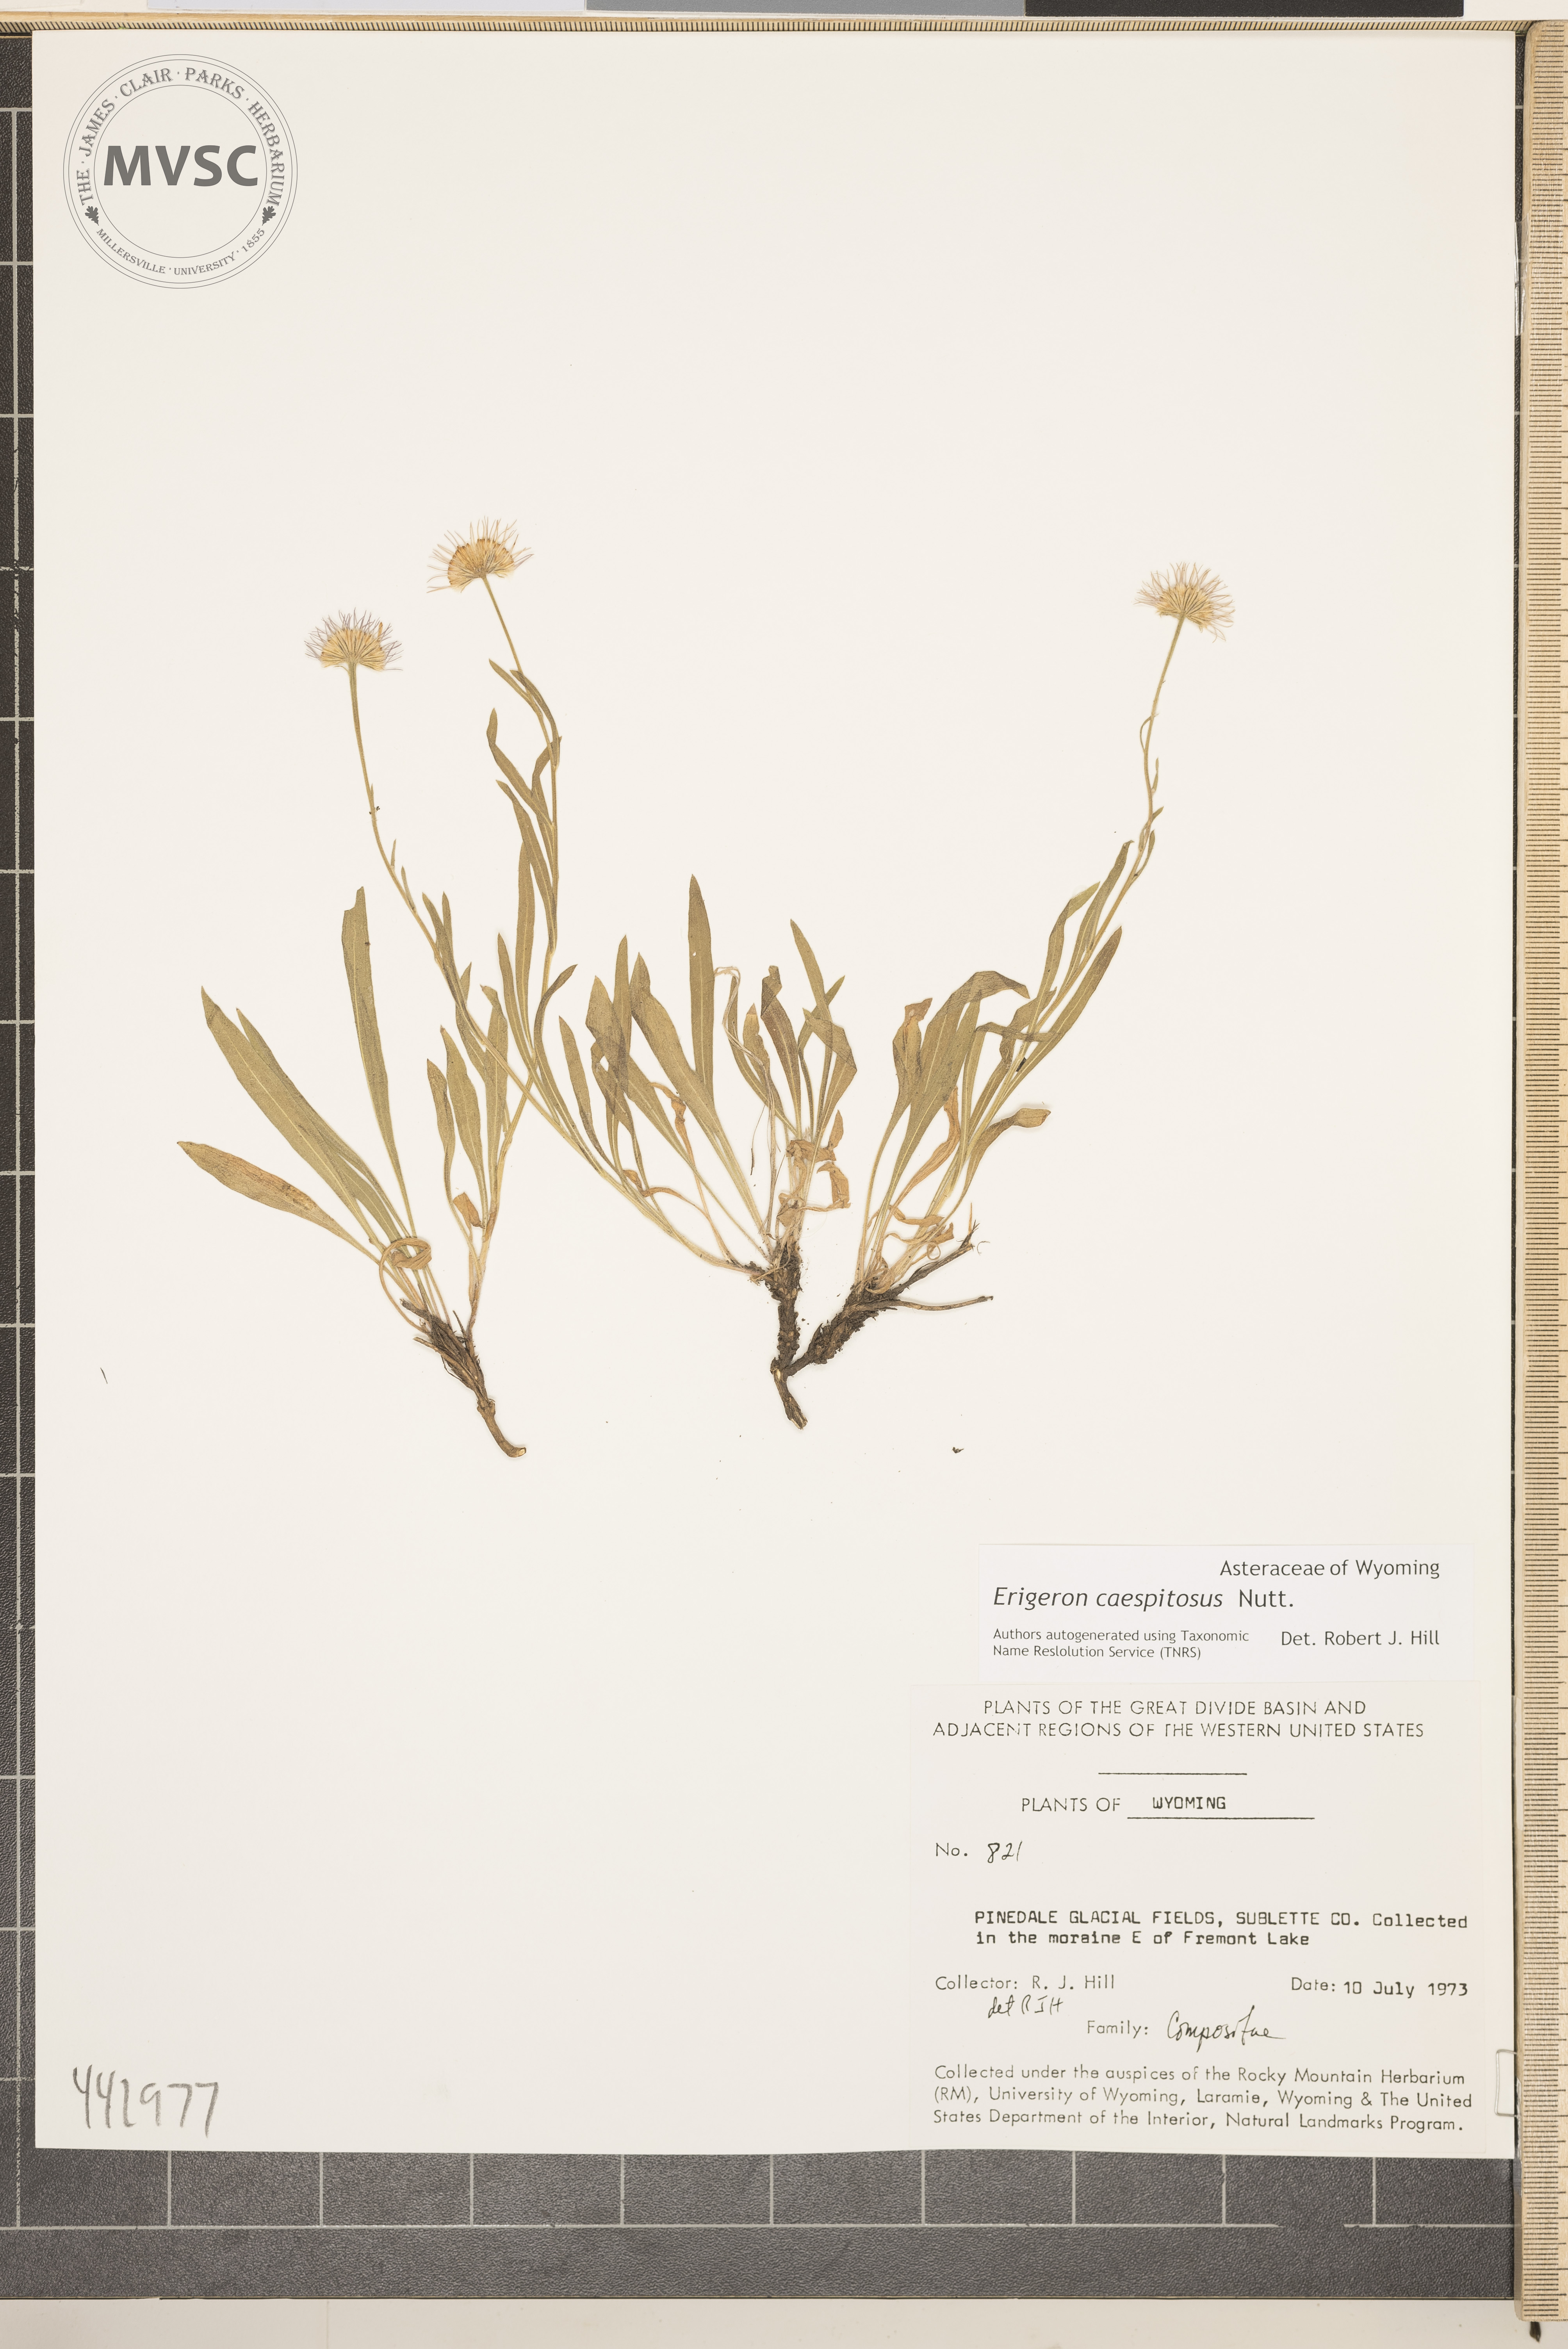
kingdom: Plantae
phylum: Tracheophyta
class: Magnoliopsida
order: Asterales
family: Asteraceae
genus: Erigeron
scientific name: Erigeron caespitosus
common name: Tufted fleabane
